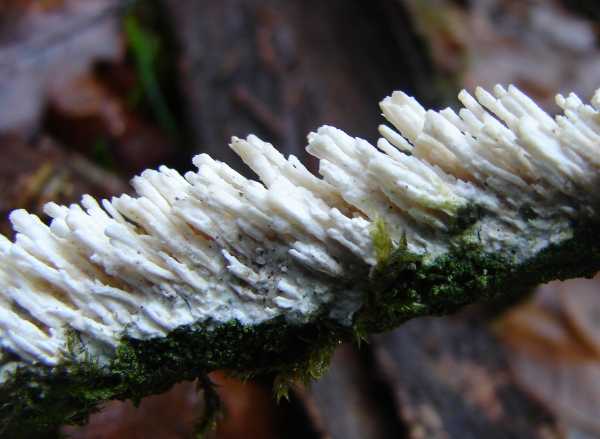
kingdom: Fungi
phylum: Basidiomycota
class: Agaricomycetes
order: Hymenochaetales
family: Schizoporaceae
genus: Xylodon
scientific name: Xylodon radula
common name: grovtandet kalkskind
